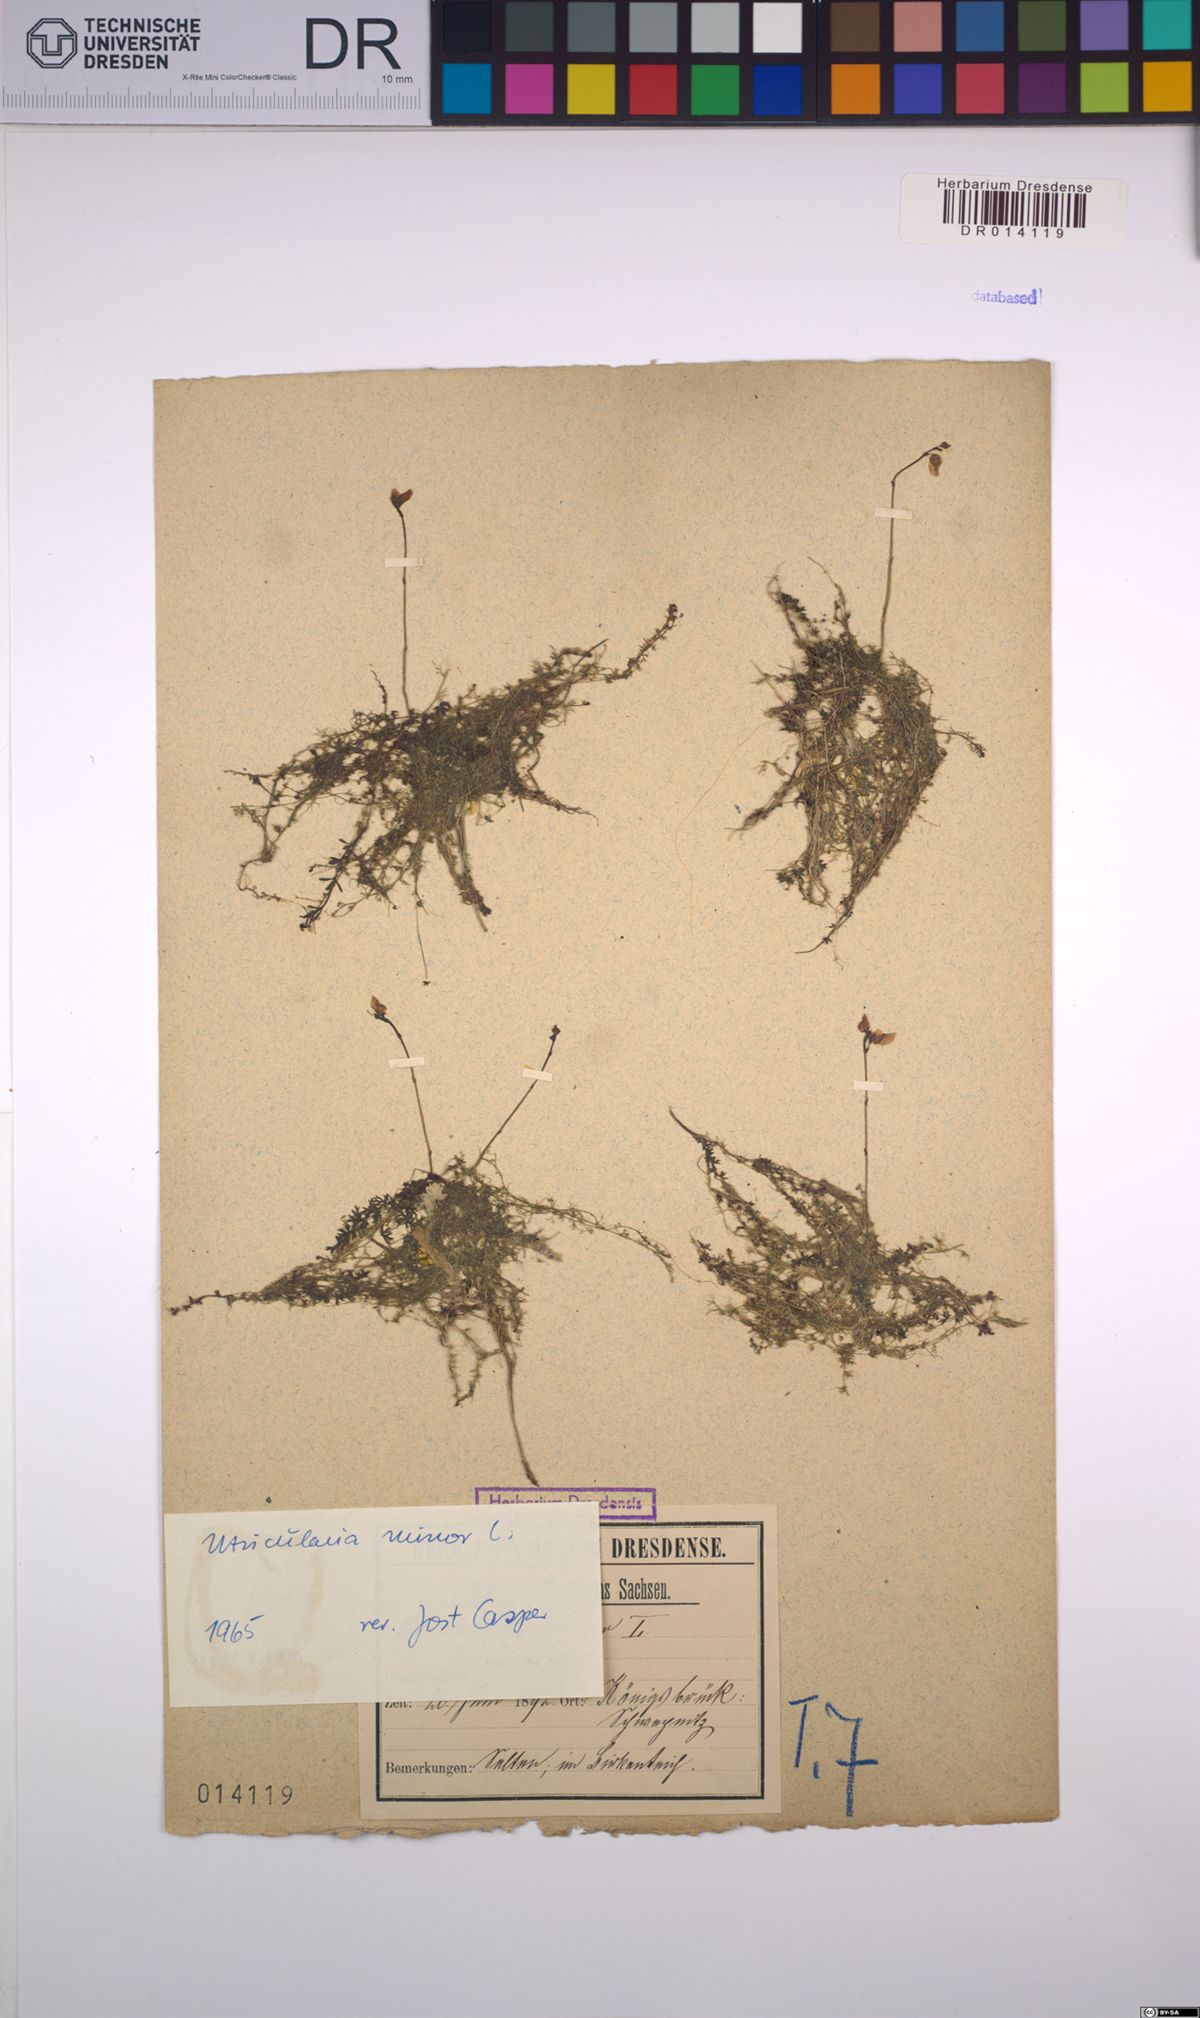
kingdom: Plantae
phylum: Tracheophyta
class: Magnoliopsida
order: Lamiales
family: Lentibulariaceae
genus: Utricularia
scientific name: Utricularia minor
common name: Lesser bladderwort
